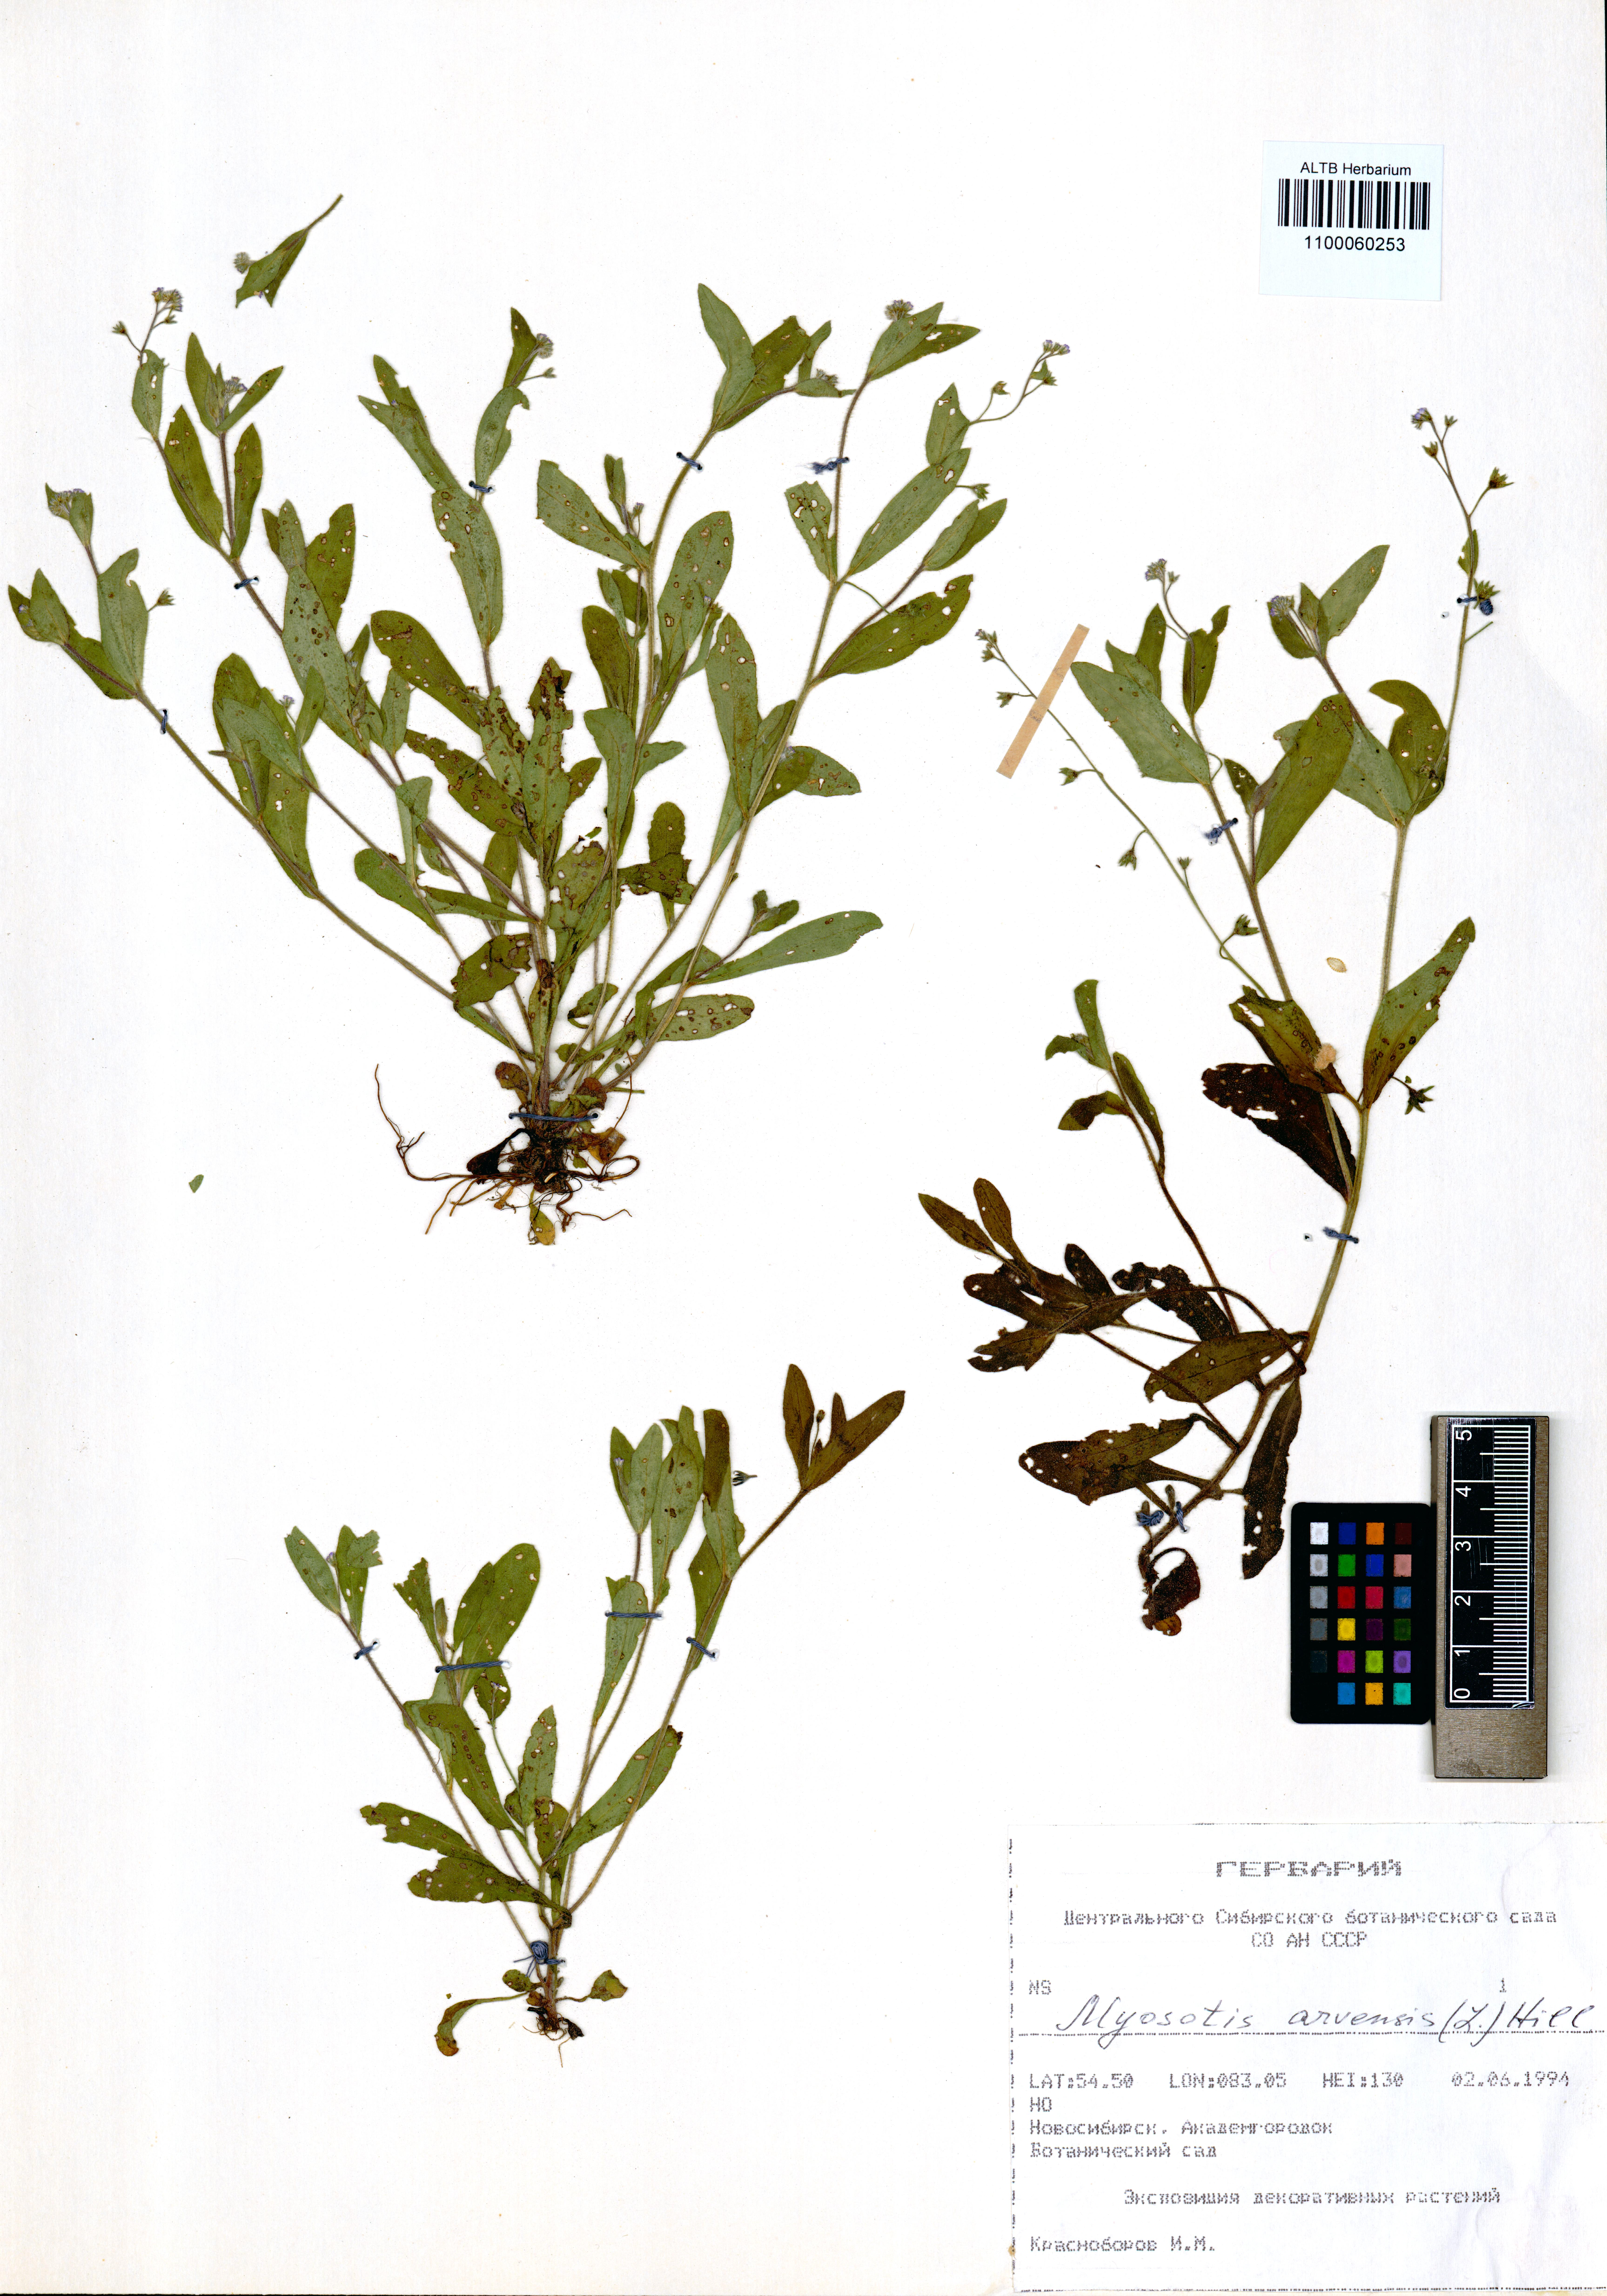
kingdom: Plantae
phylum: Tracheophyta
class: Magnoliopsida
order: Boraginales
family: Boraginaceae
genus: Myosotis
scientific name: Myosotis arvensis
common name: Field forget-me-not
